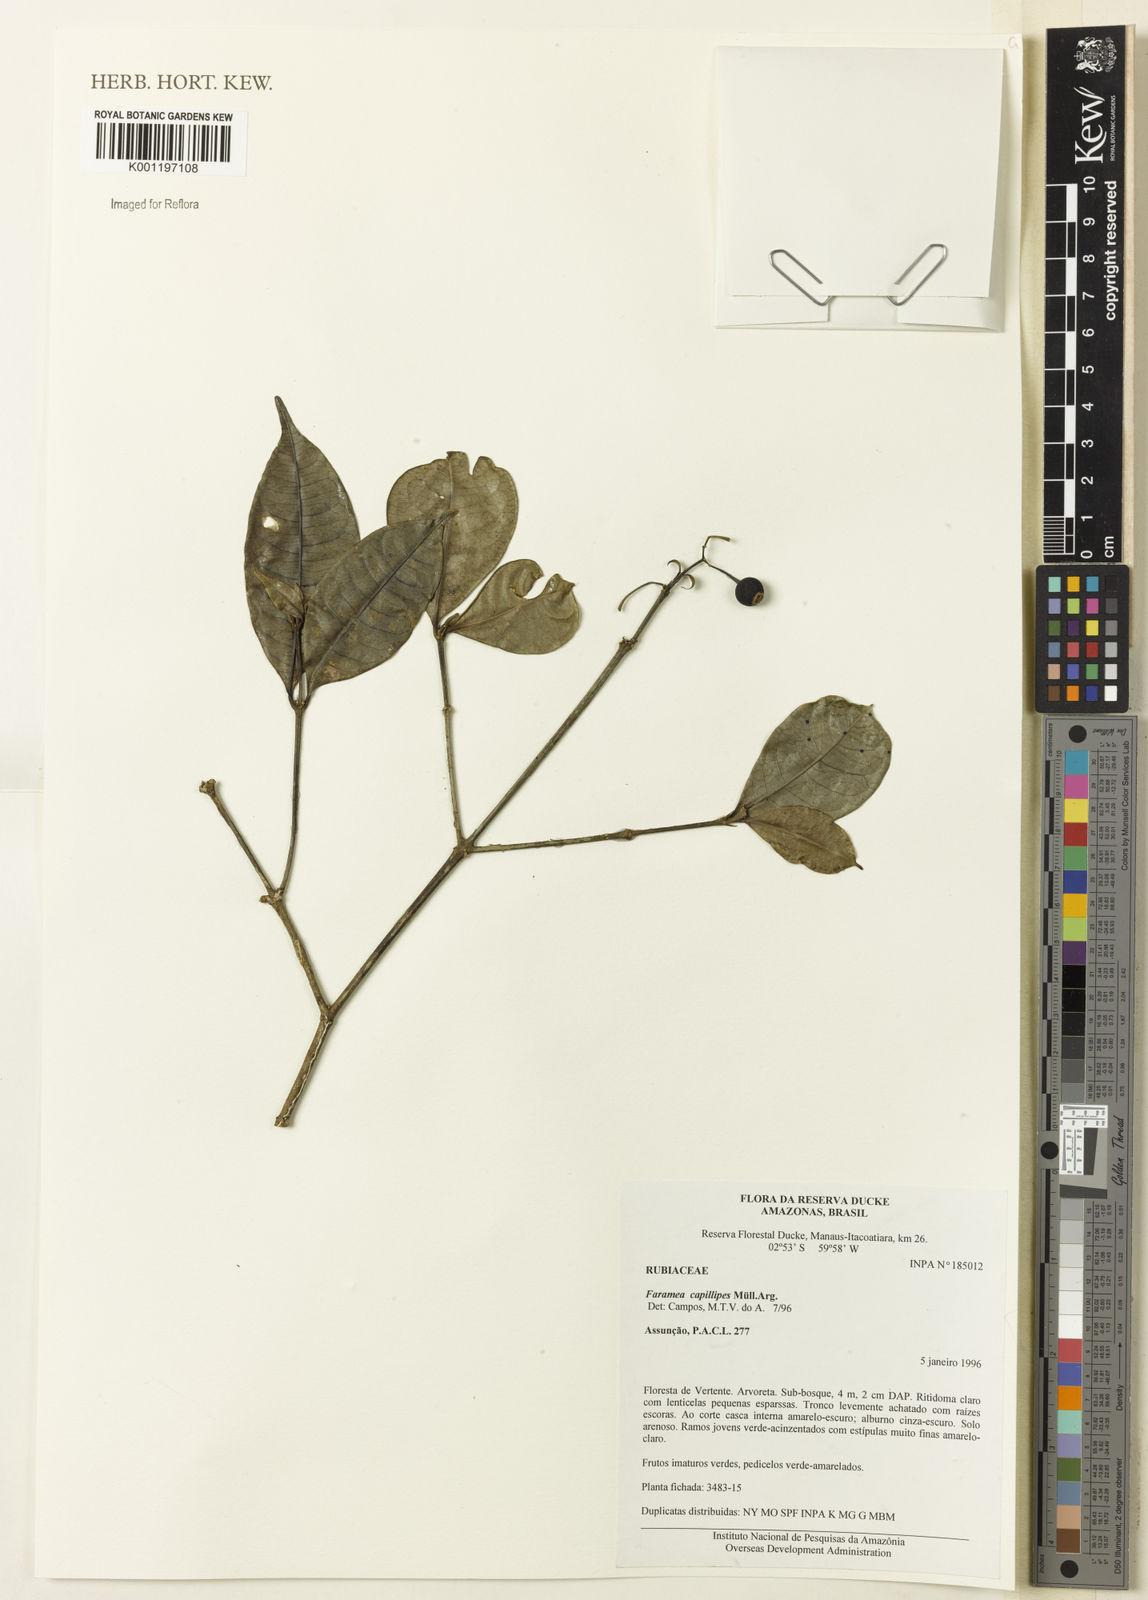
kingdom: Plantae
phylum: Tracheophyta
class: Magnoliopsida
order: Gentianales
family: Rubiaceae
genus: Faramea
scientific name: Faramea
